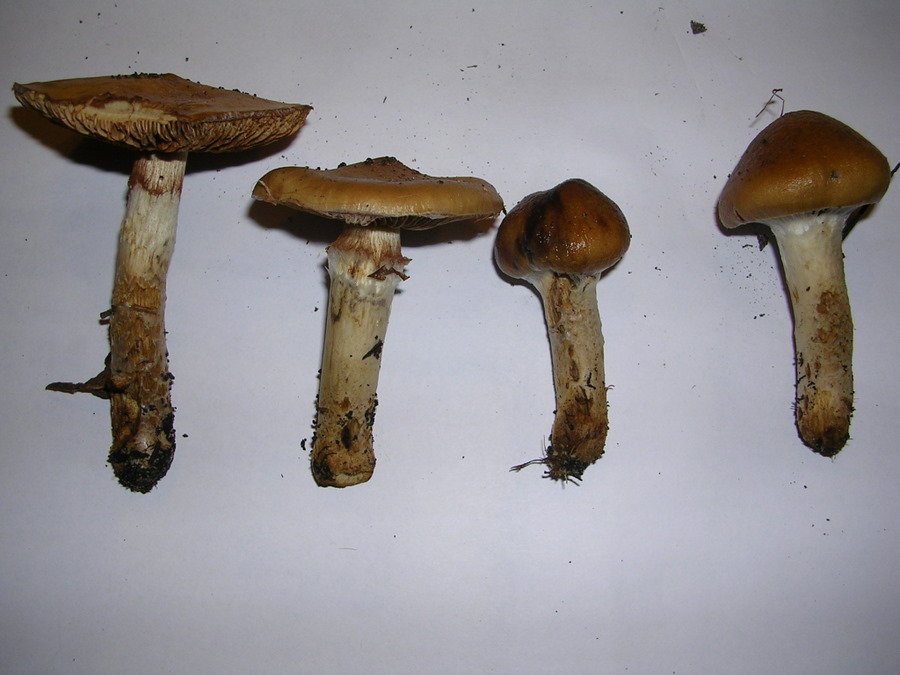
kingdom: Fungi
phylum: Basidiomycota
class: Agaricomycetes
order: Agaricales
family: Cortinariaceae
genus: Cortinarius
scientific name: Cortinarius trivialis
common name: brunslimet slørhat
